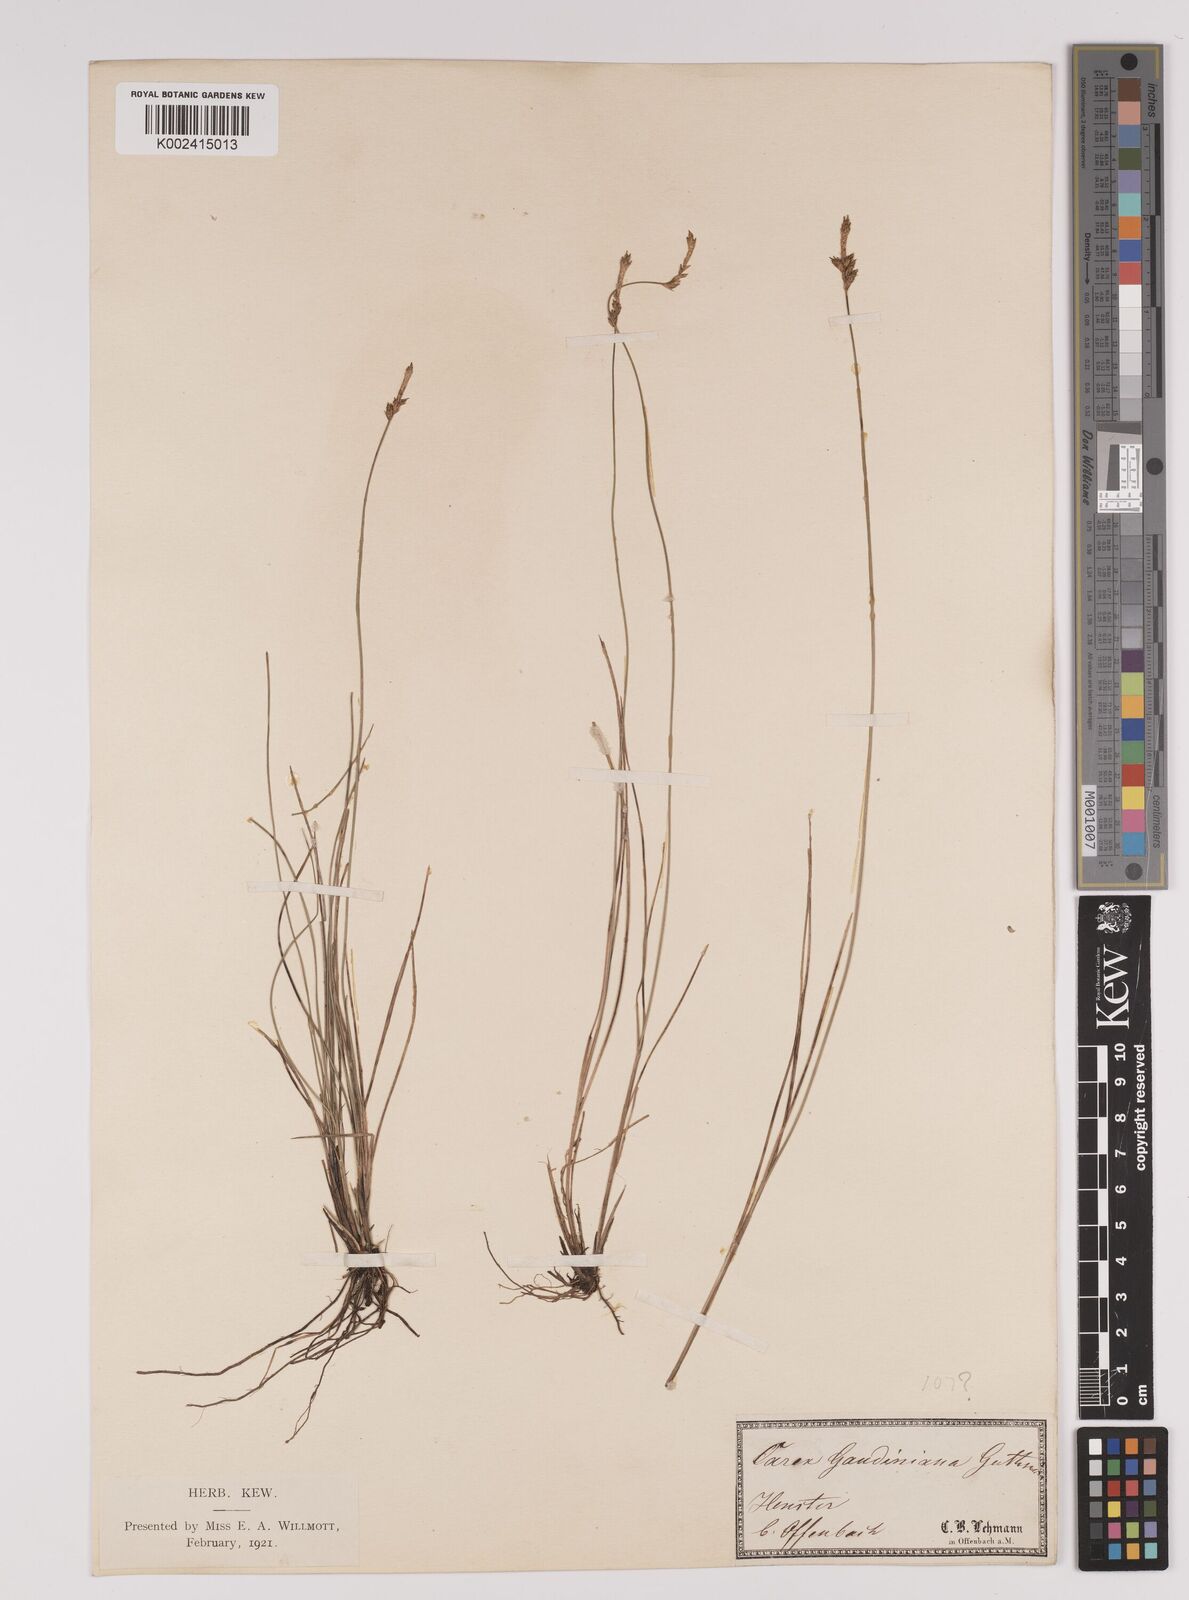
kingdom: Plantae
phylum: Tracheophyta
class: Liliopsida
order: Poales
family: Cyperaceae
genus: Carex
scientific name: Carex dioica
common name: Dioecious sedge
